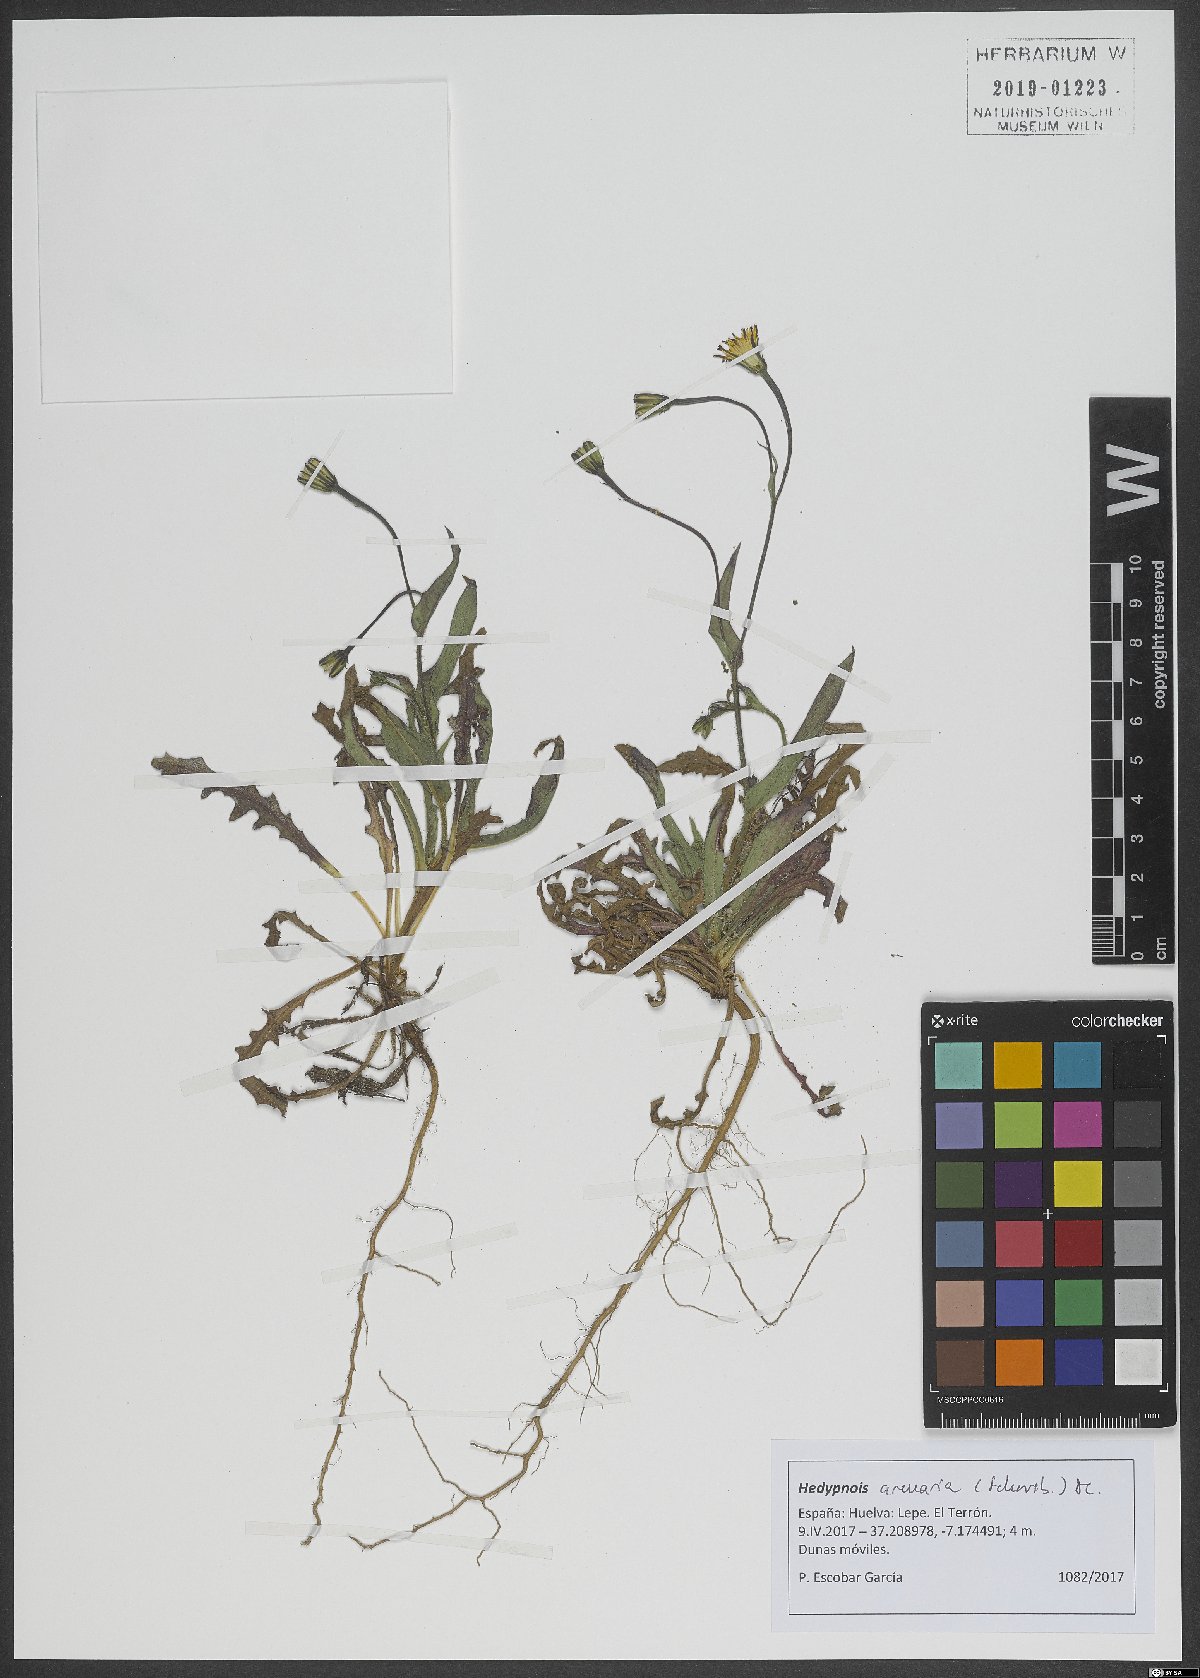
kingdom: Plantae
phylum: Tracheophyta
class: Magnoliopsida
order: Asterales
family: Asteraceae
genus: Hedypnois
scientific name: Hedypnois arenaria
